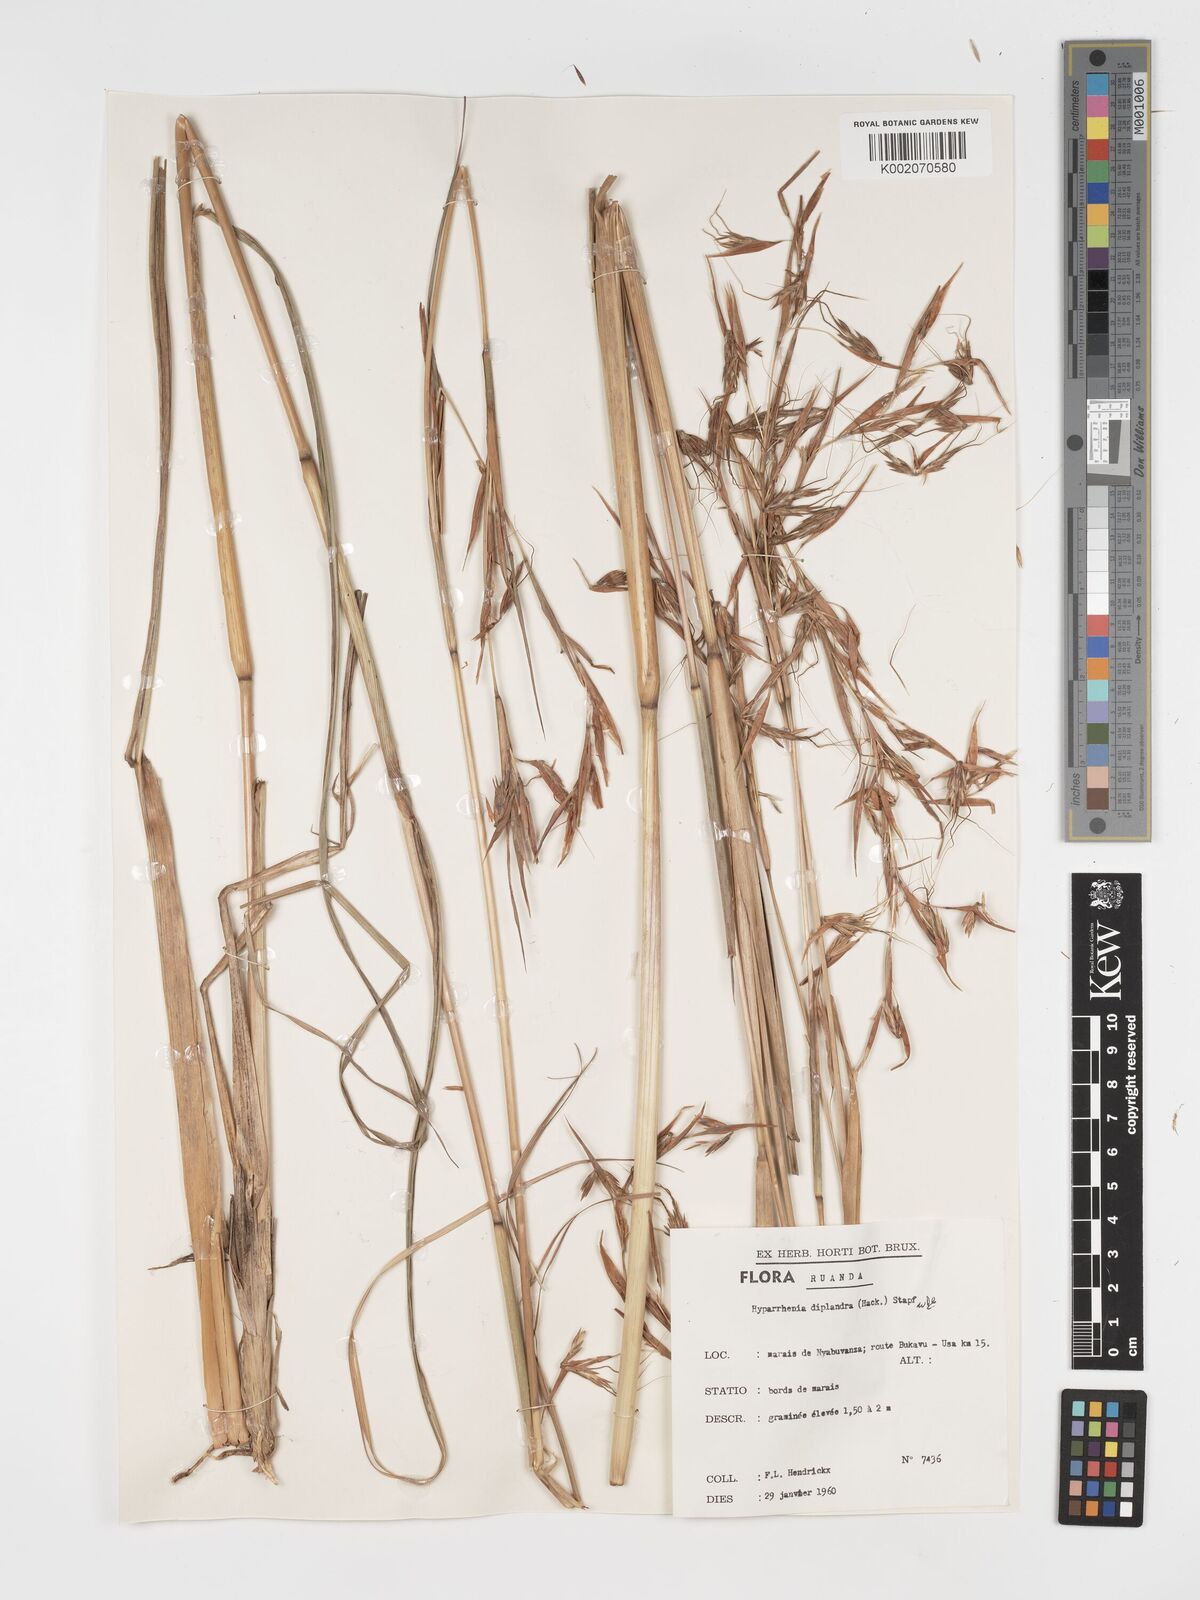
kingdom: Plantae
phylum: Tracheophyta
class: Liliopsida
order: Poales
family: Poaceae
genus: Hyparrhenia
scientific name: Hyparrhenia diplandra
